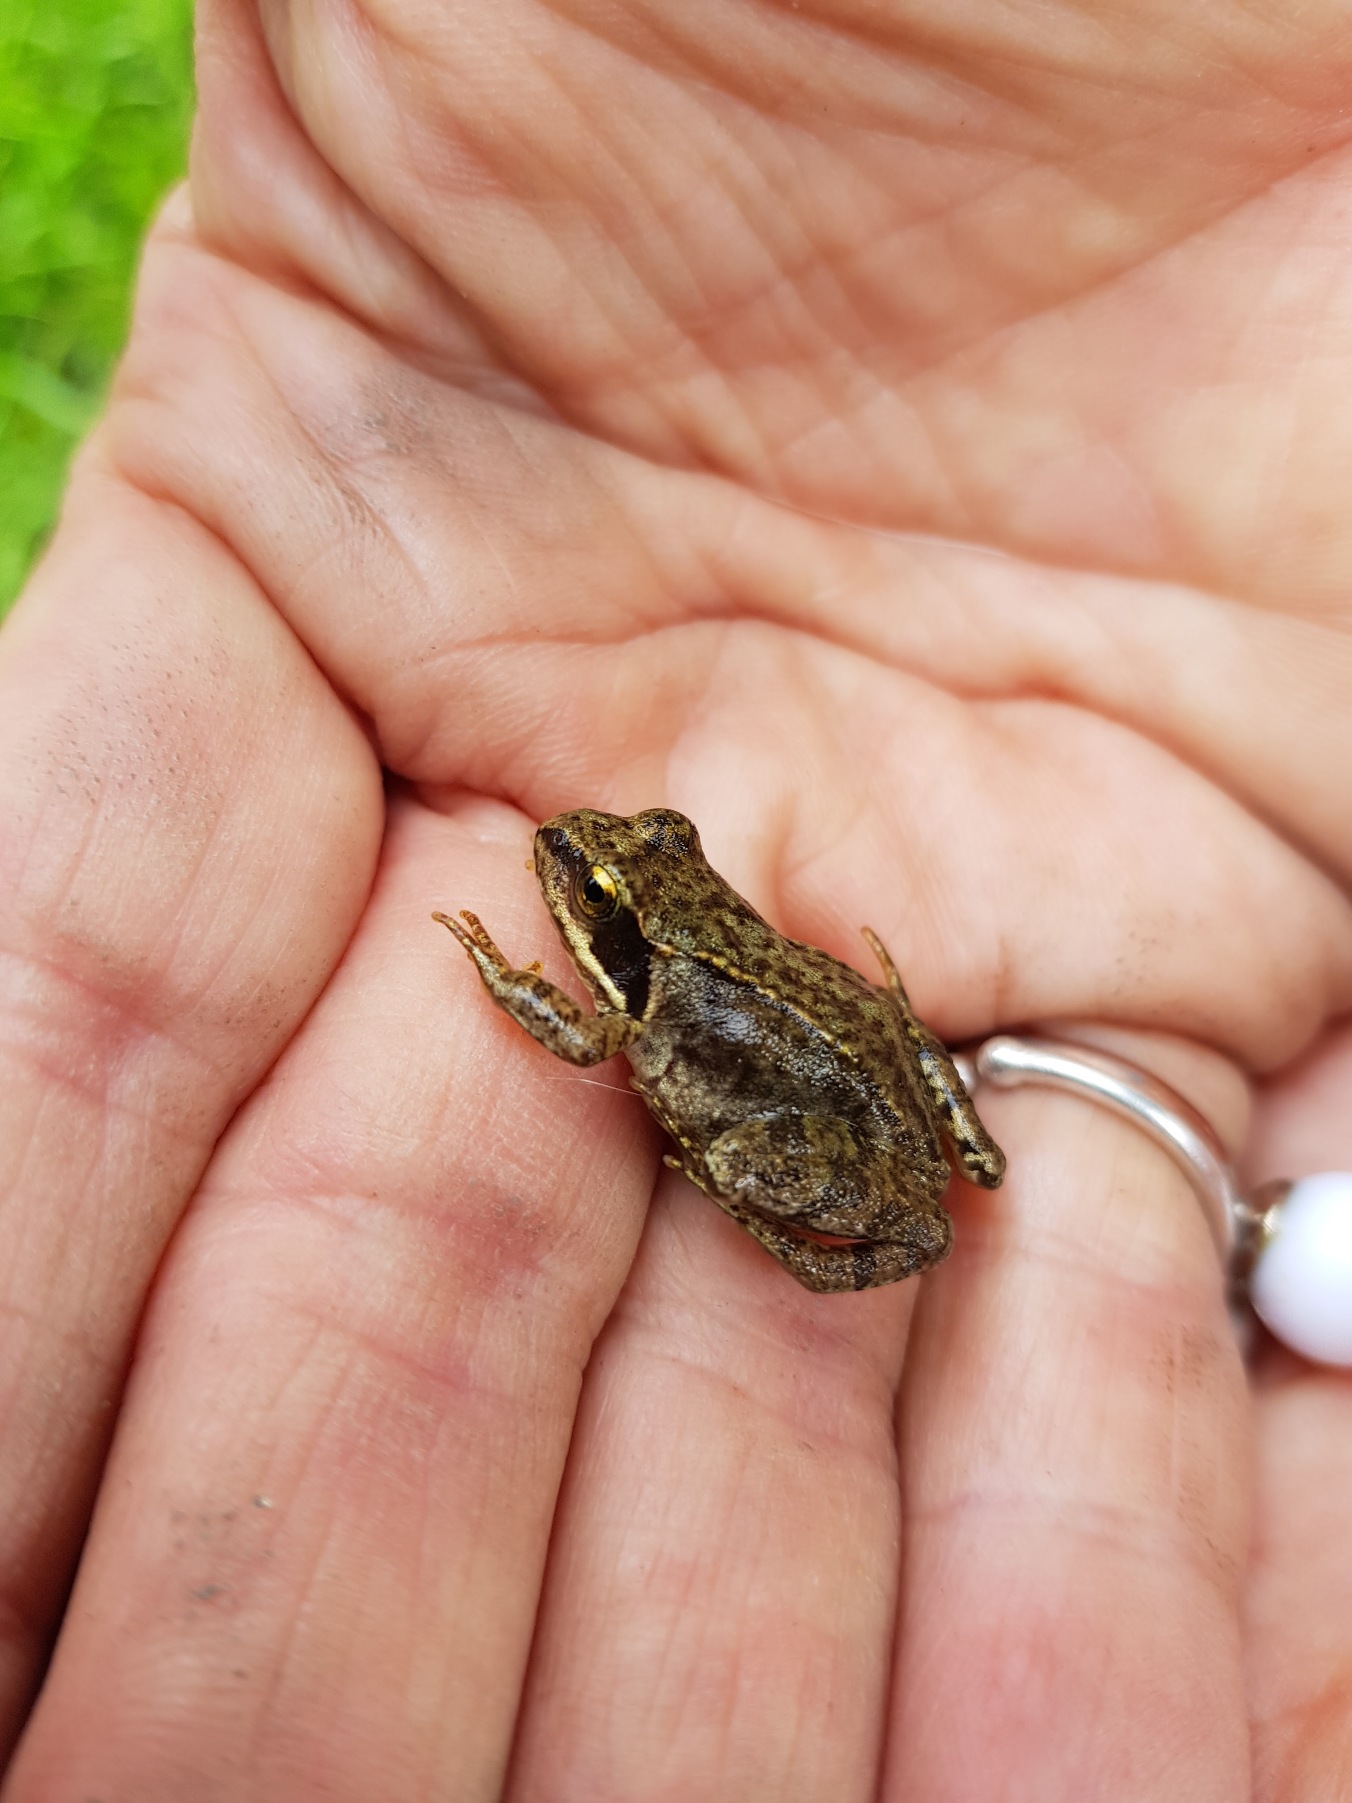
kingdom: Animalia
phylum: Chordata
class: Amphibia
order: Anura
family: Ranidae
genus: Rana
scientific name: Rana temporaria
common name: Butsnudet frø
